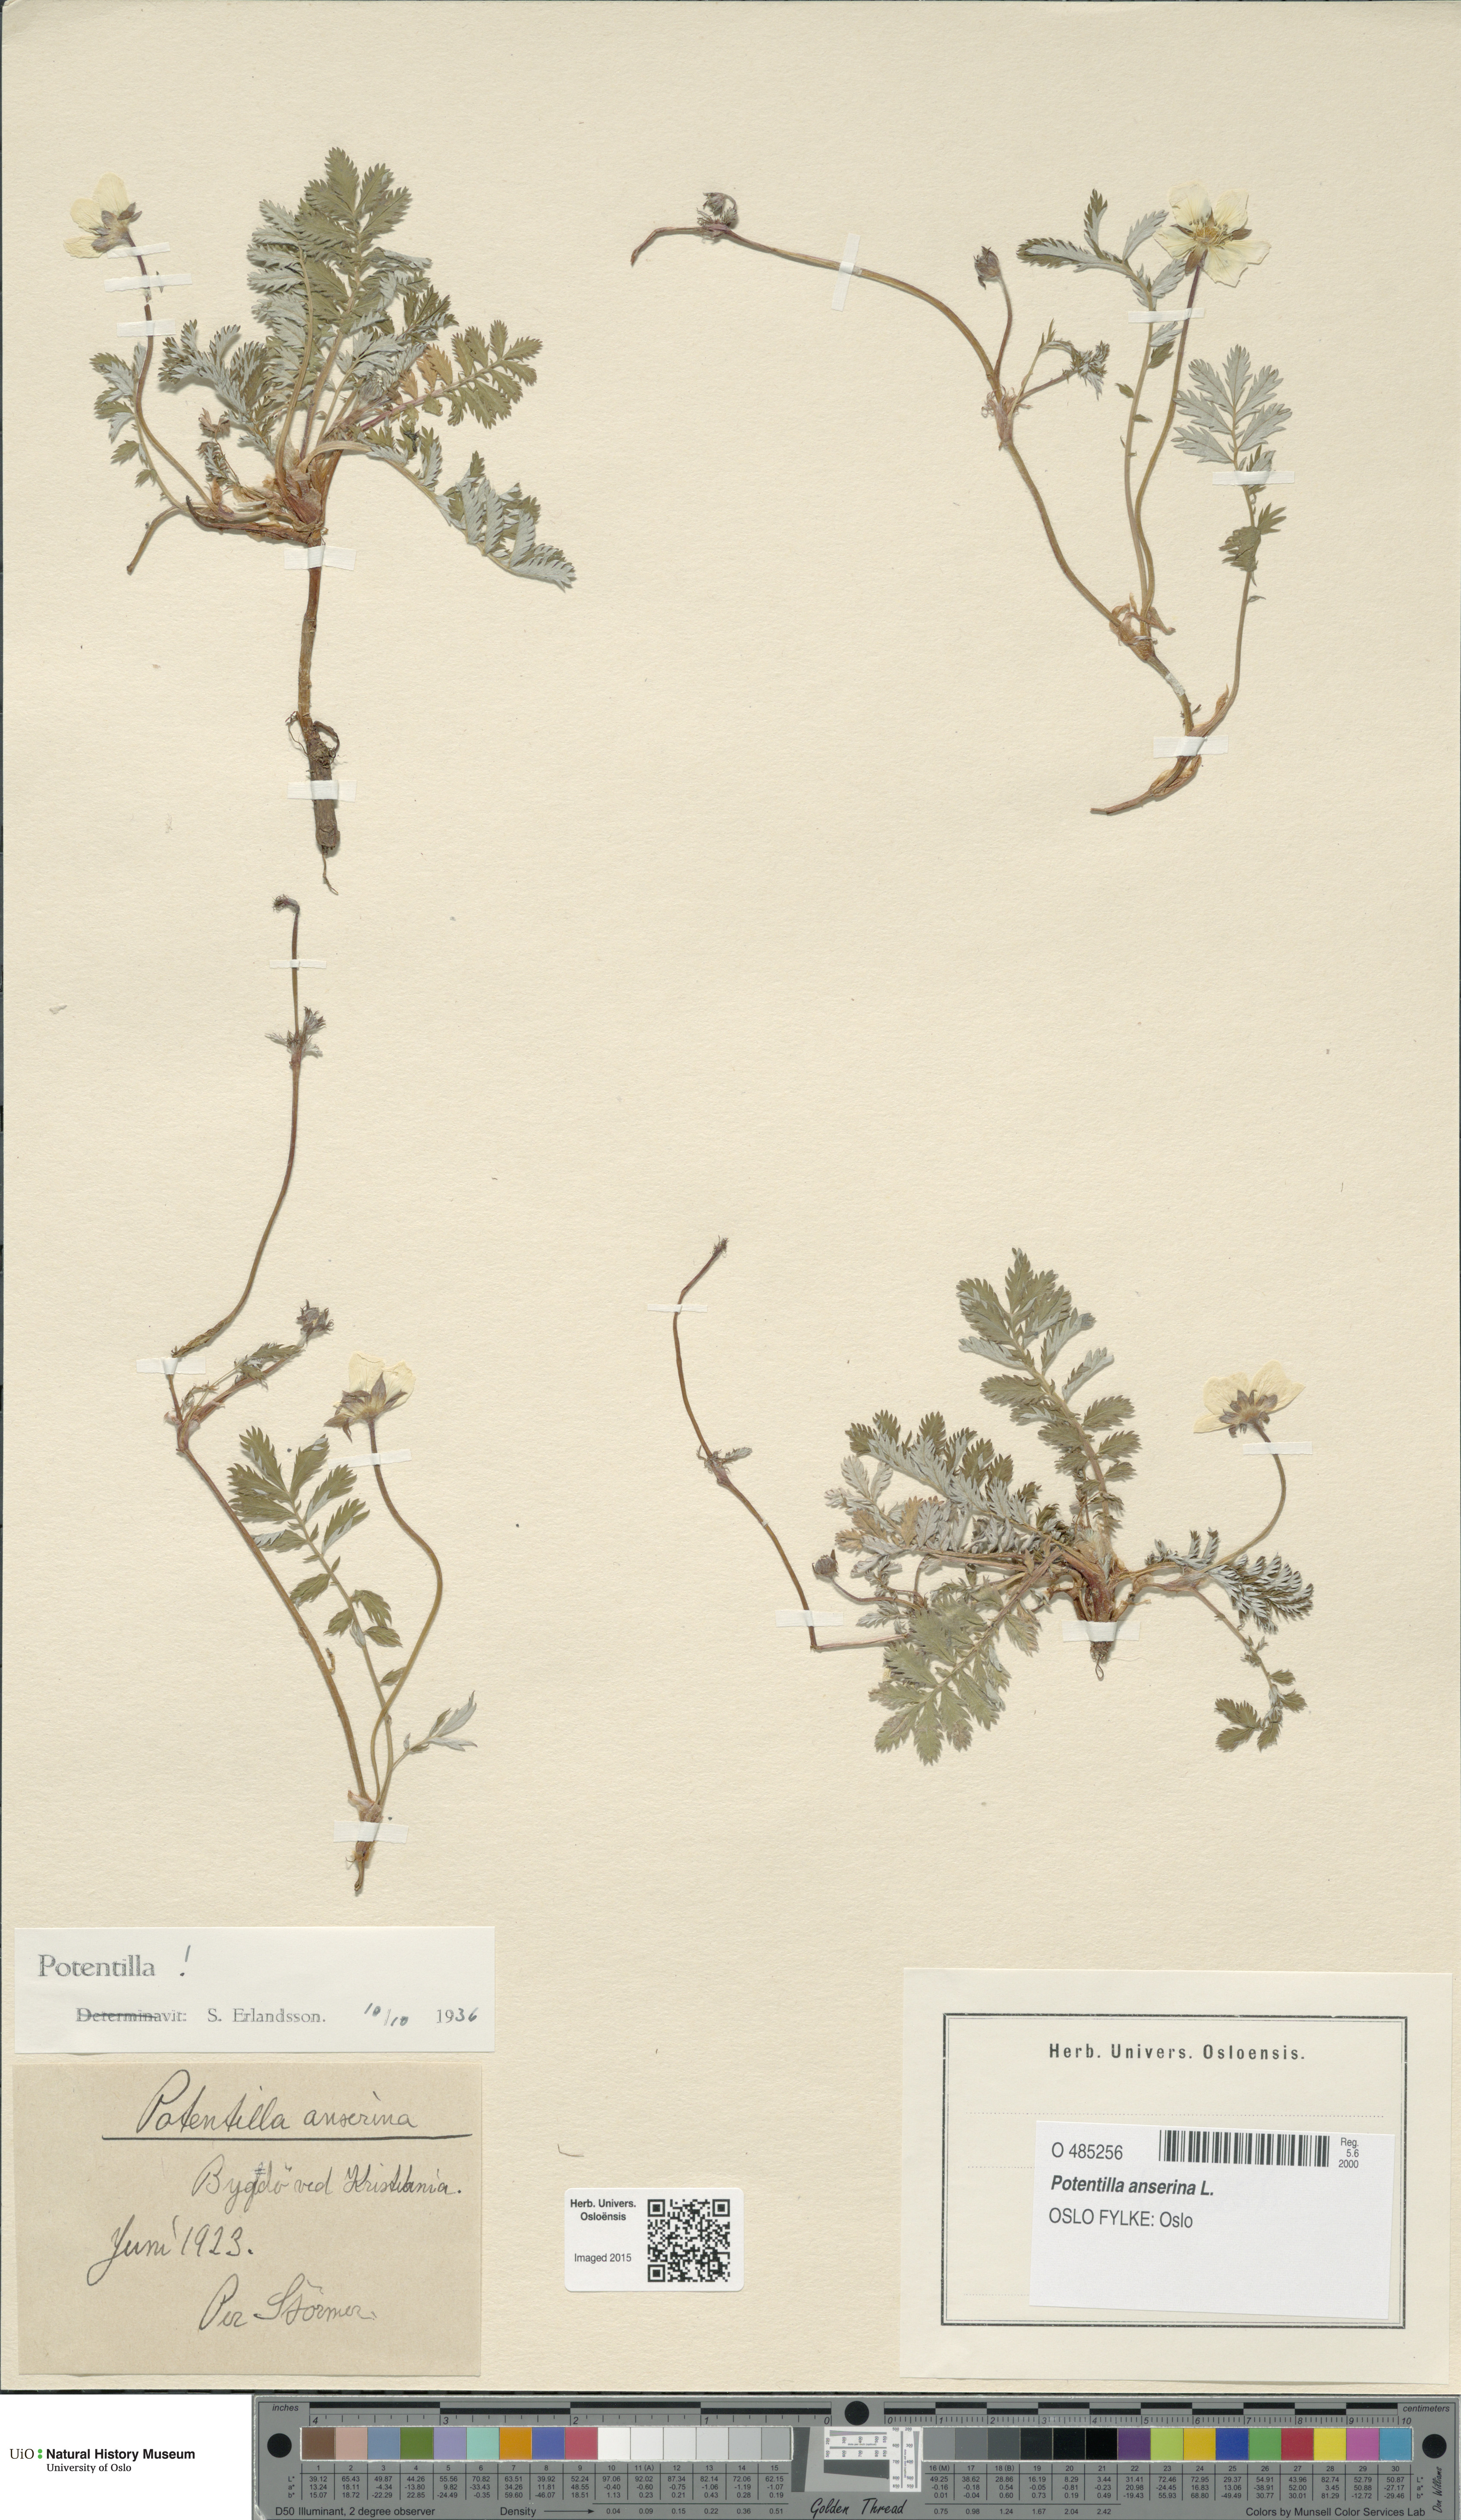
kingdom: Plantae
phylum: Tracheophyta
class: Magnoliopsida
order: Rosales
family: Rosaceae
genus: Argentina
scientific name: Argentina anserina
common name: Common silverweed
